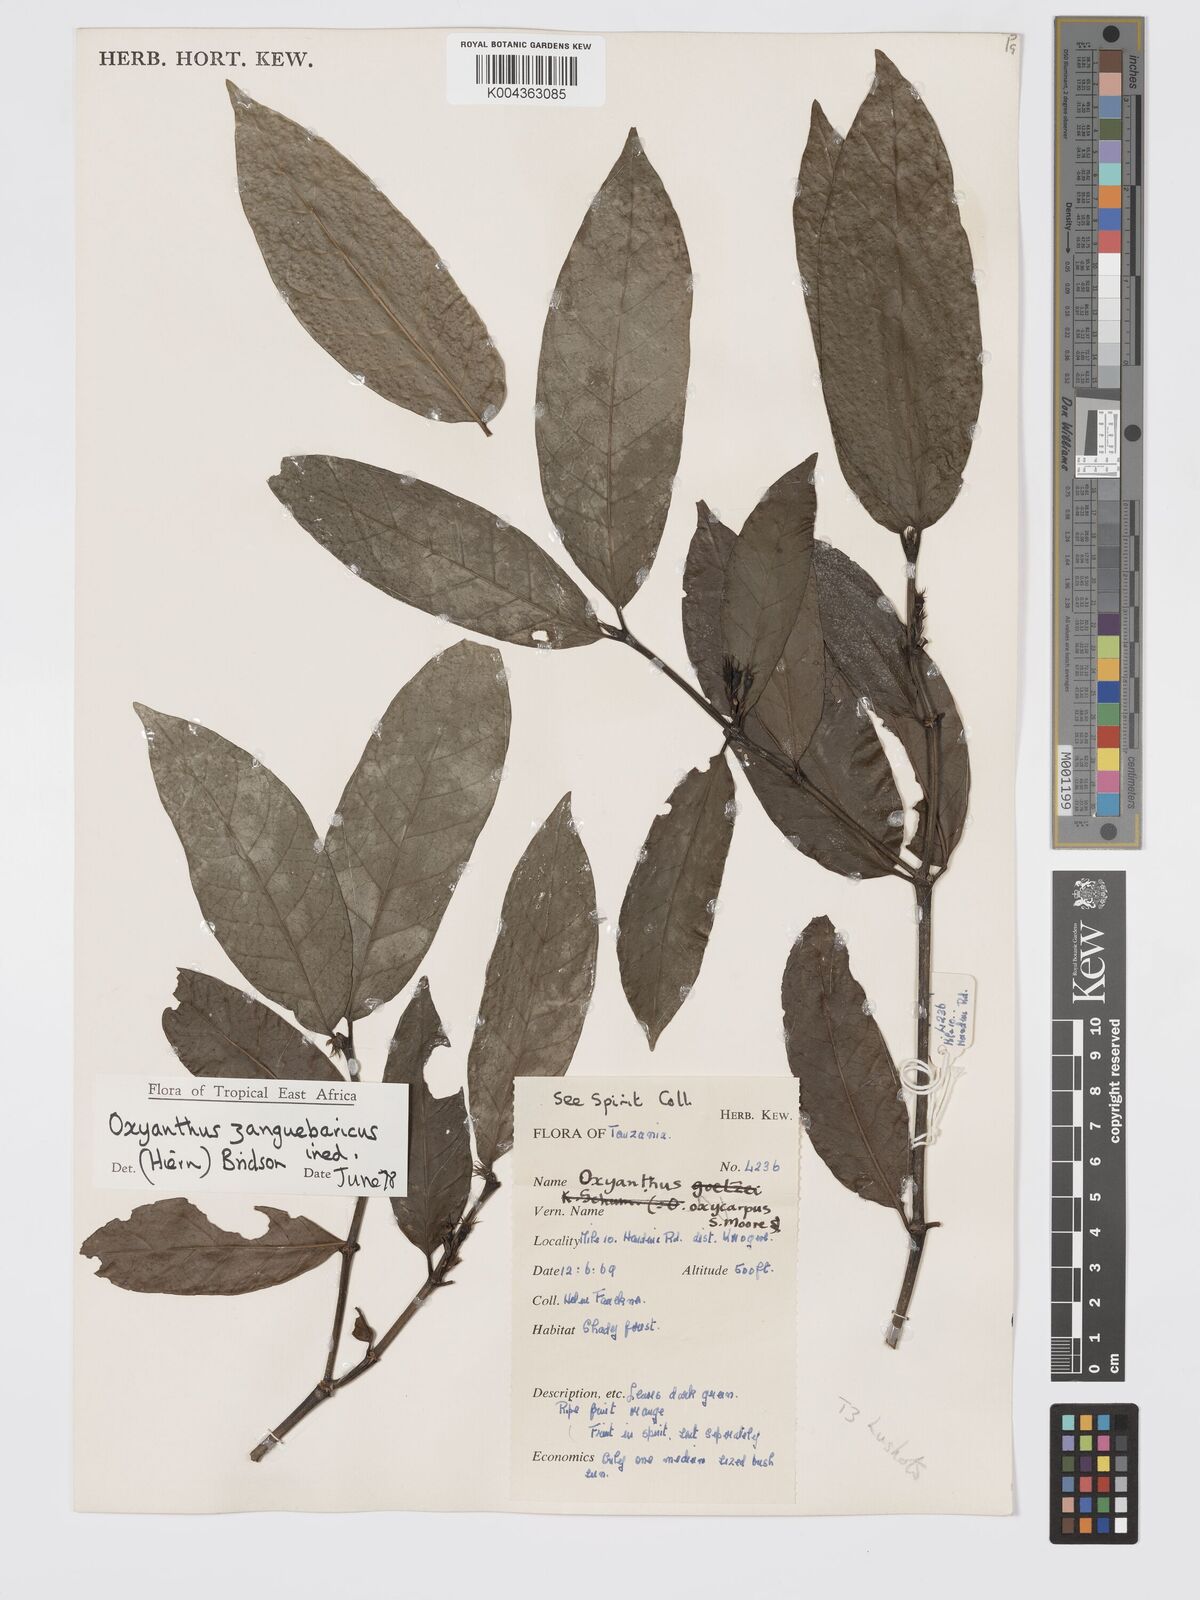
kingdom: Plantae
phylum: Tracheophyta
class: Magnoliopsida
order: Gentianales
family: Rubiaceae
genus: Oxyanthus
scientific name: Oxyanthus zanguebaricus
